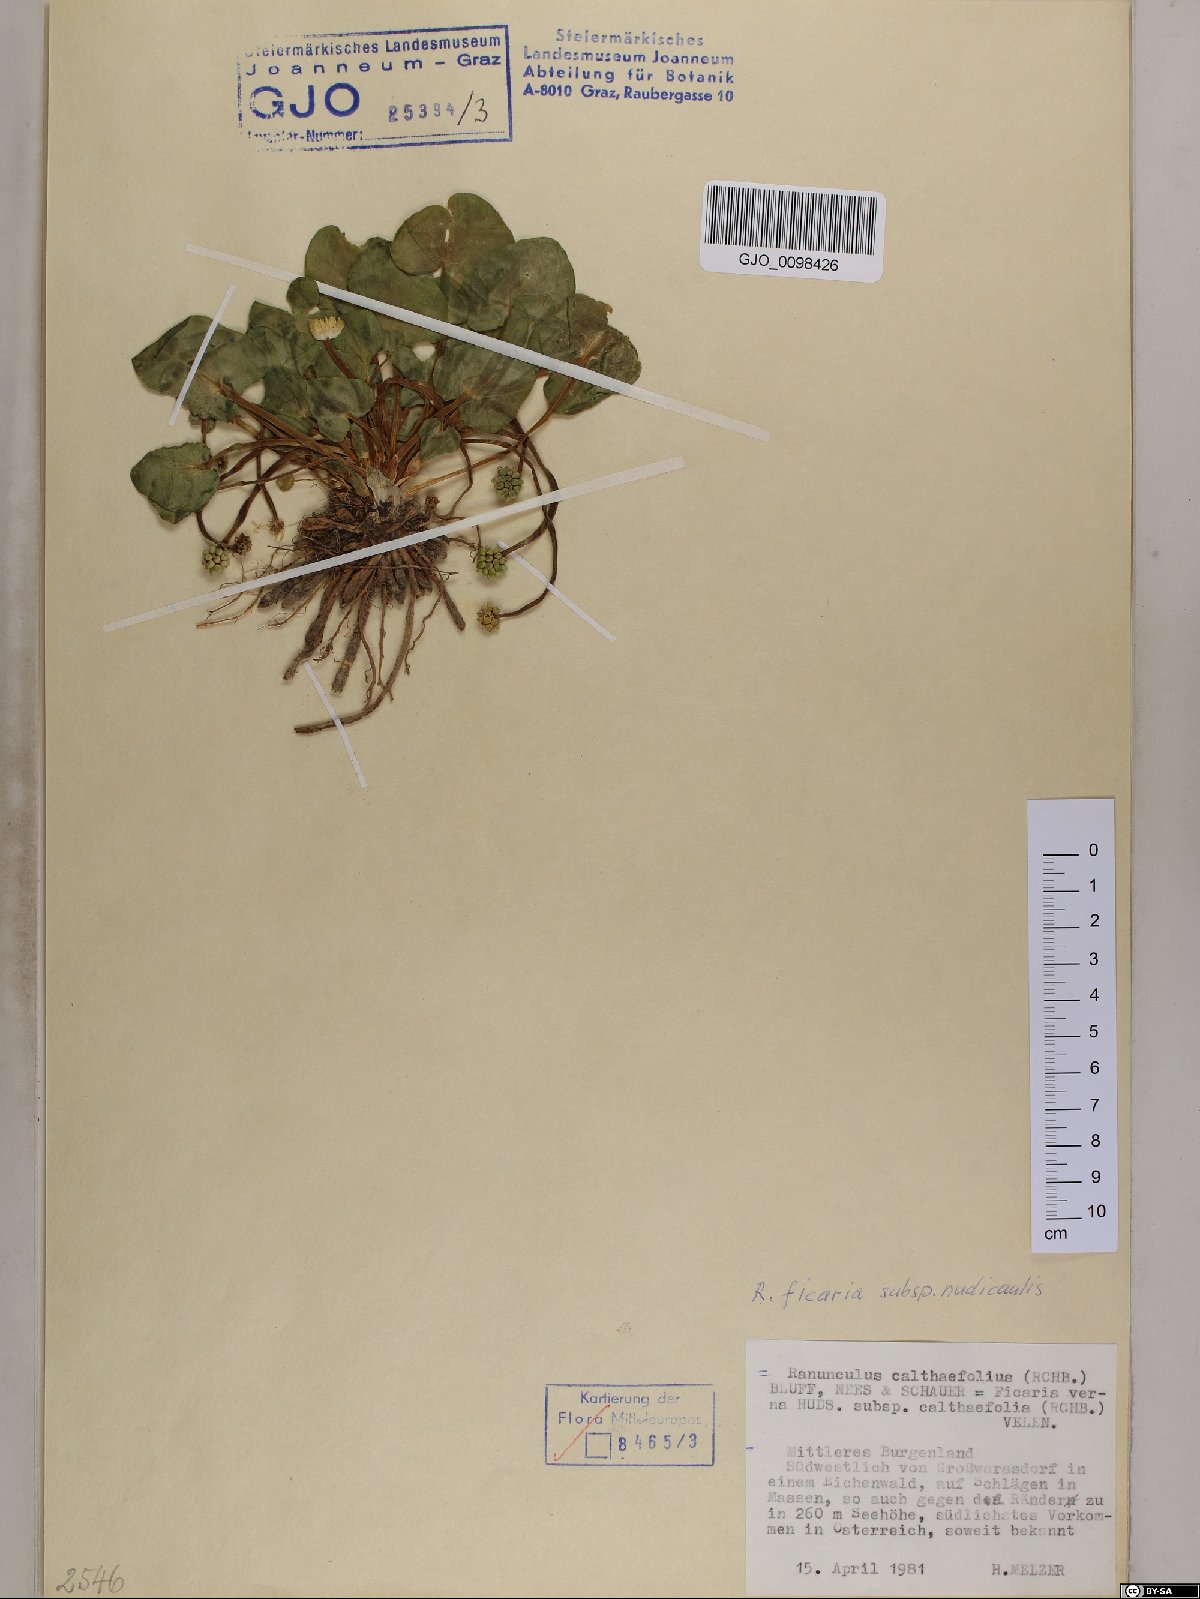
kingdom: Plantae
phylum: Tracheophyta
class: Magnoliopsida
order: Ranunculales
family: Ranunculaceae
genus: Ficaria
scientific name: Ficaria calthifolia
